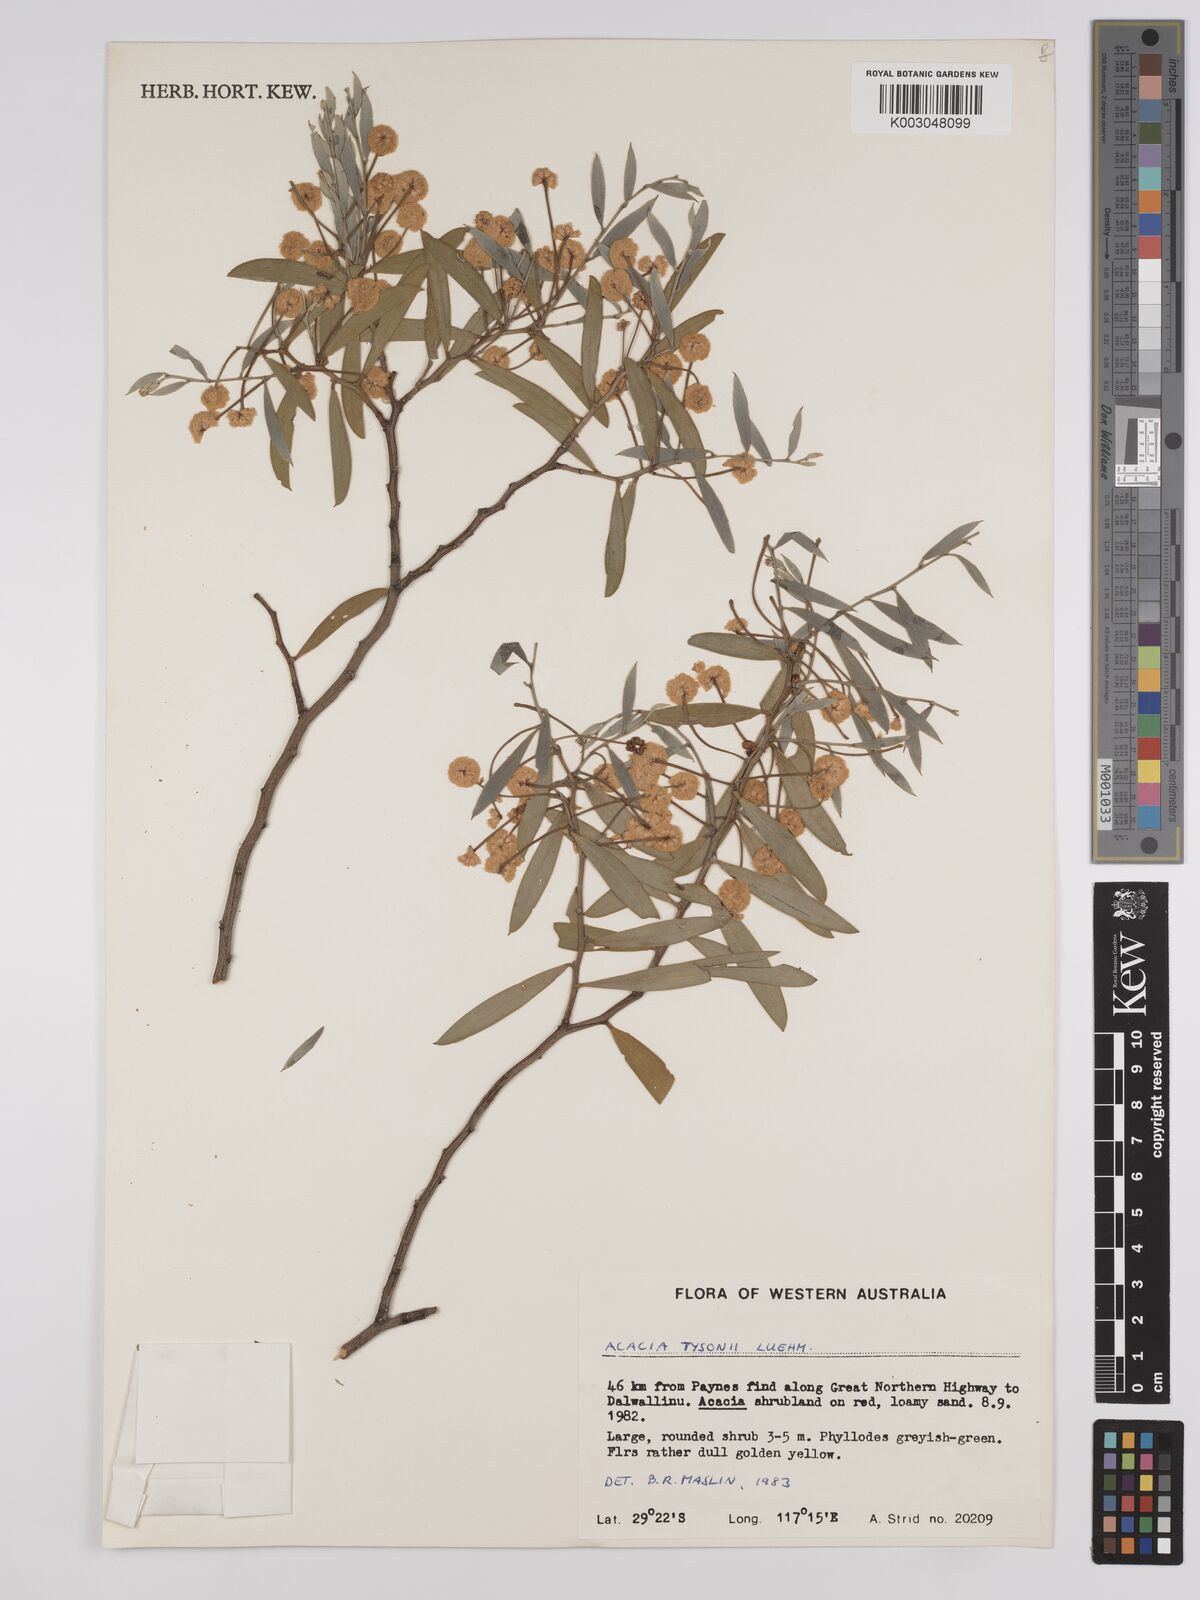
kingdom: Plantae
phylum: Tracheophyta
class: Magnoliopsida
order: Fabales
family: Fabaceae
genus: Acacia
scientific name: Acacia tysonii
